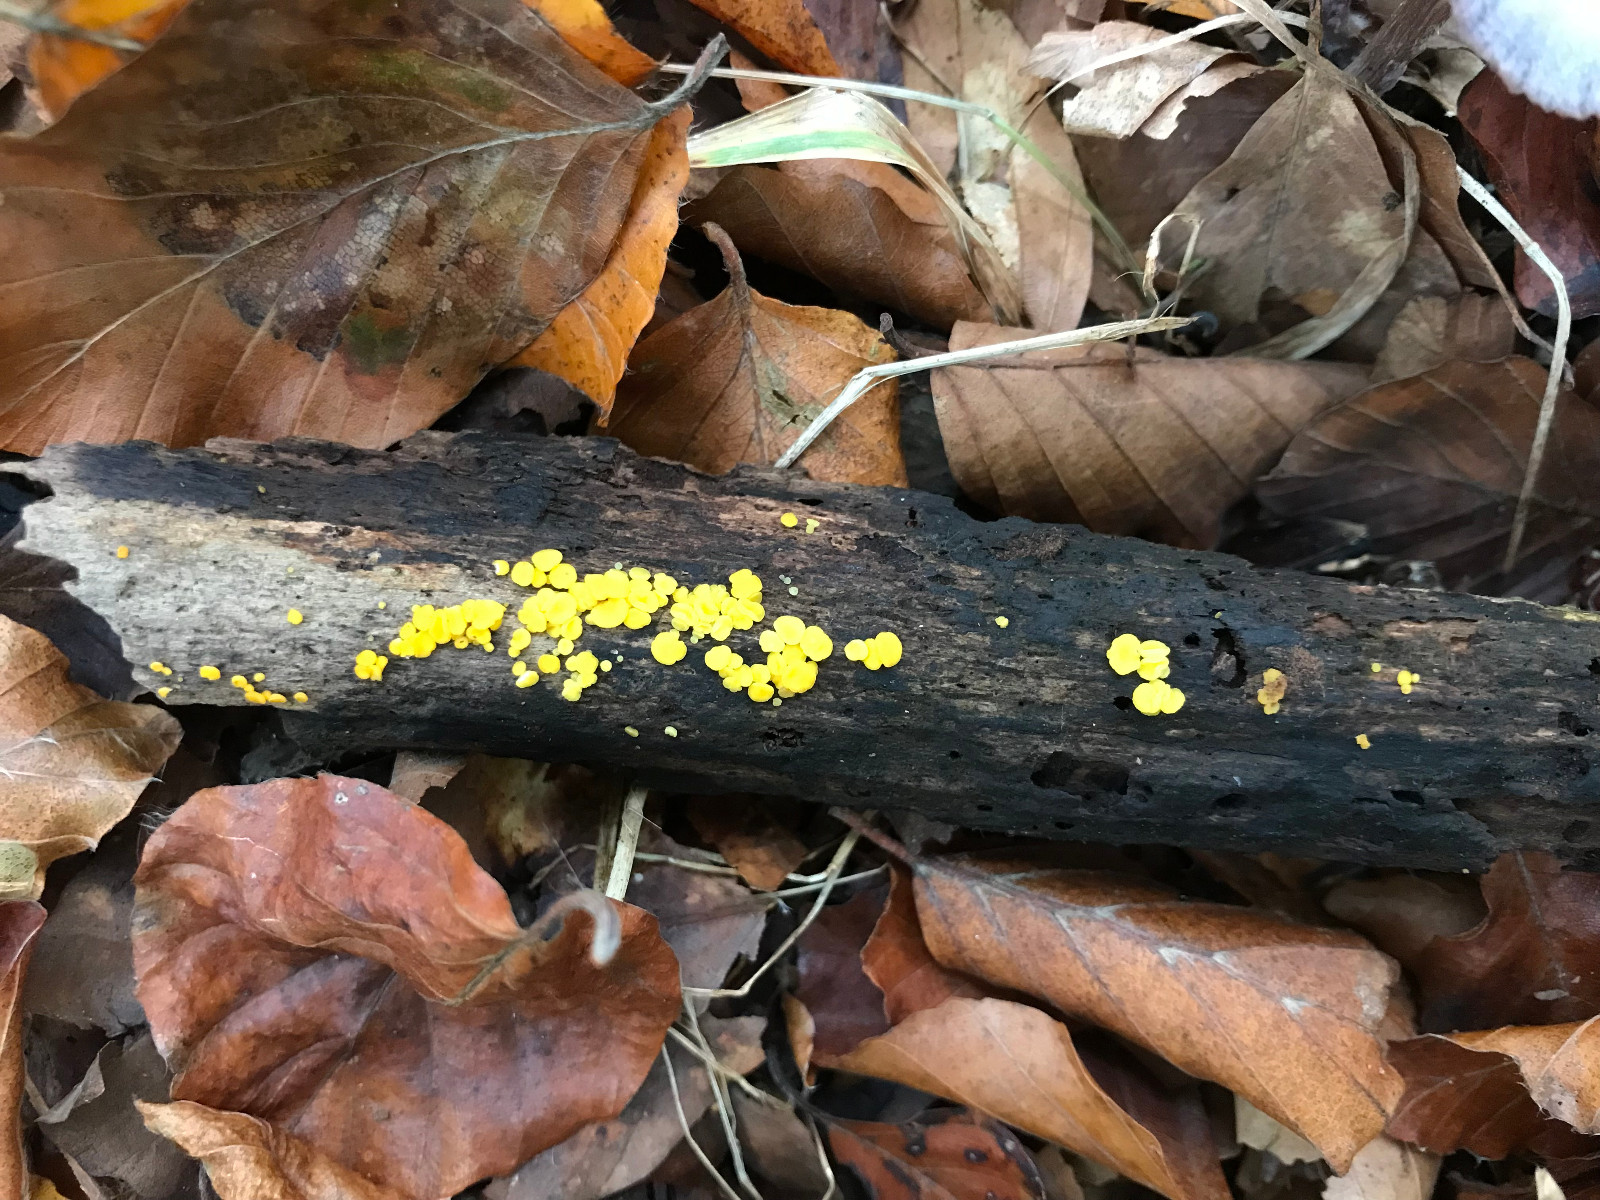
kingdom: Fungi
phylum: Ascomycota
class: Leotiomycetes
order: Helotiales
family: Pezizellaceae
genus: Calycina
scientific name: Calycina citrina
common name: almindelig gulskive
